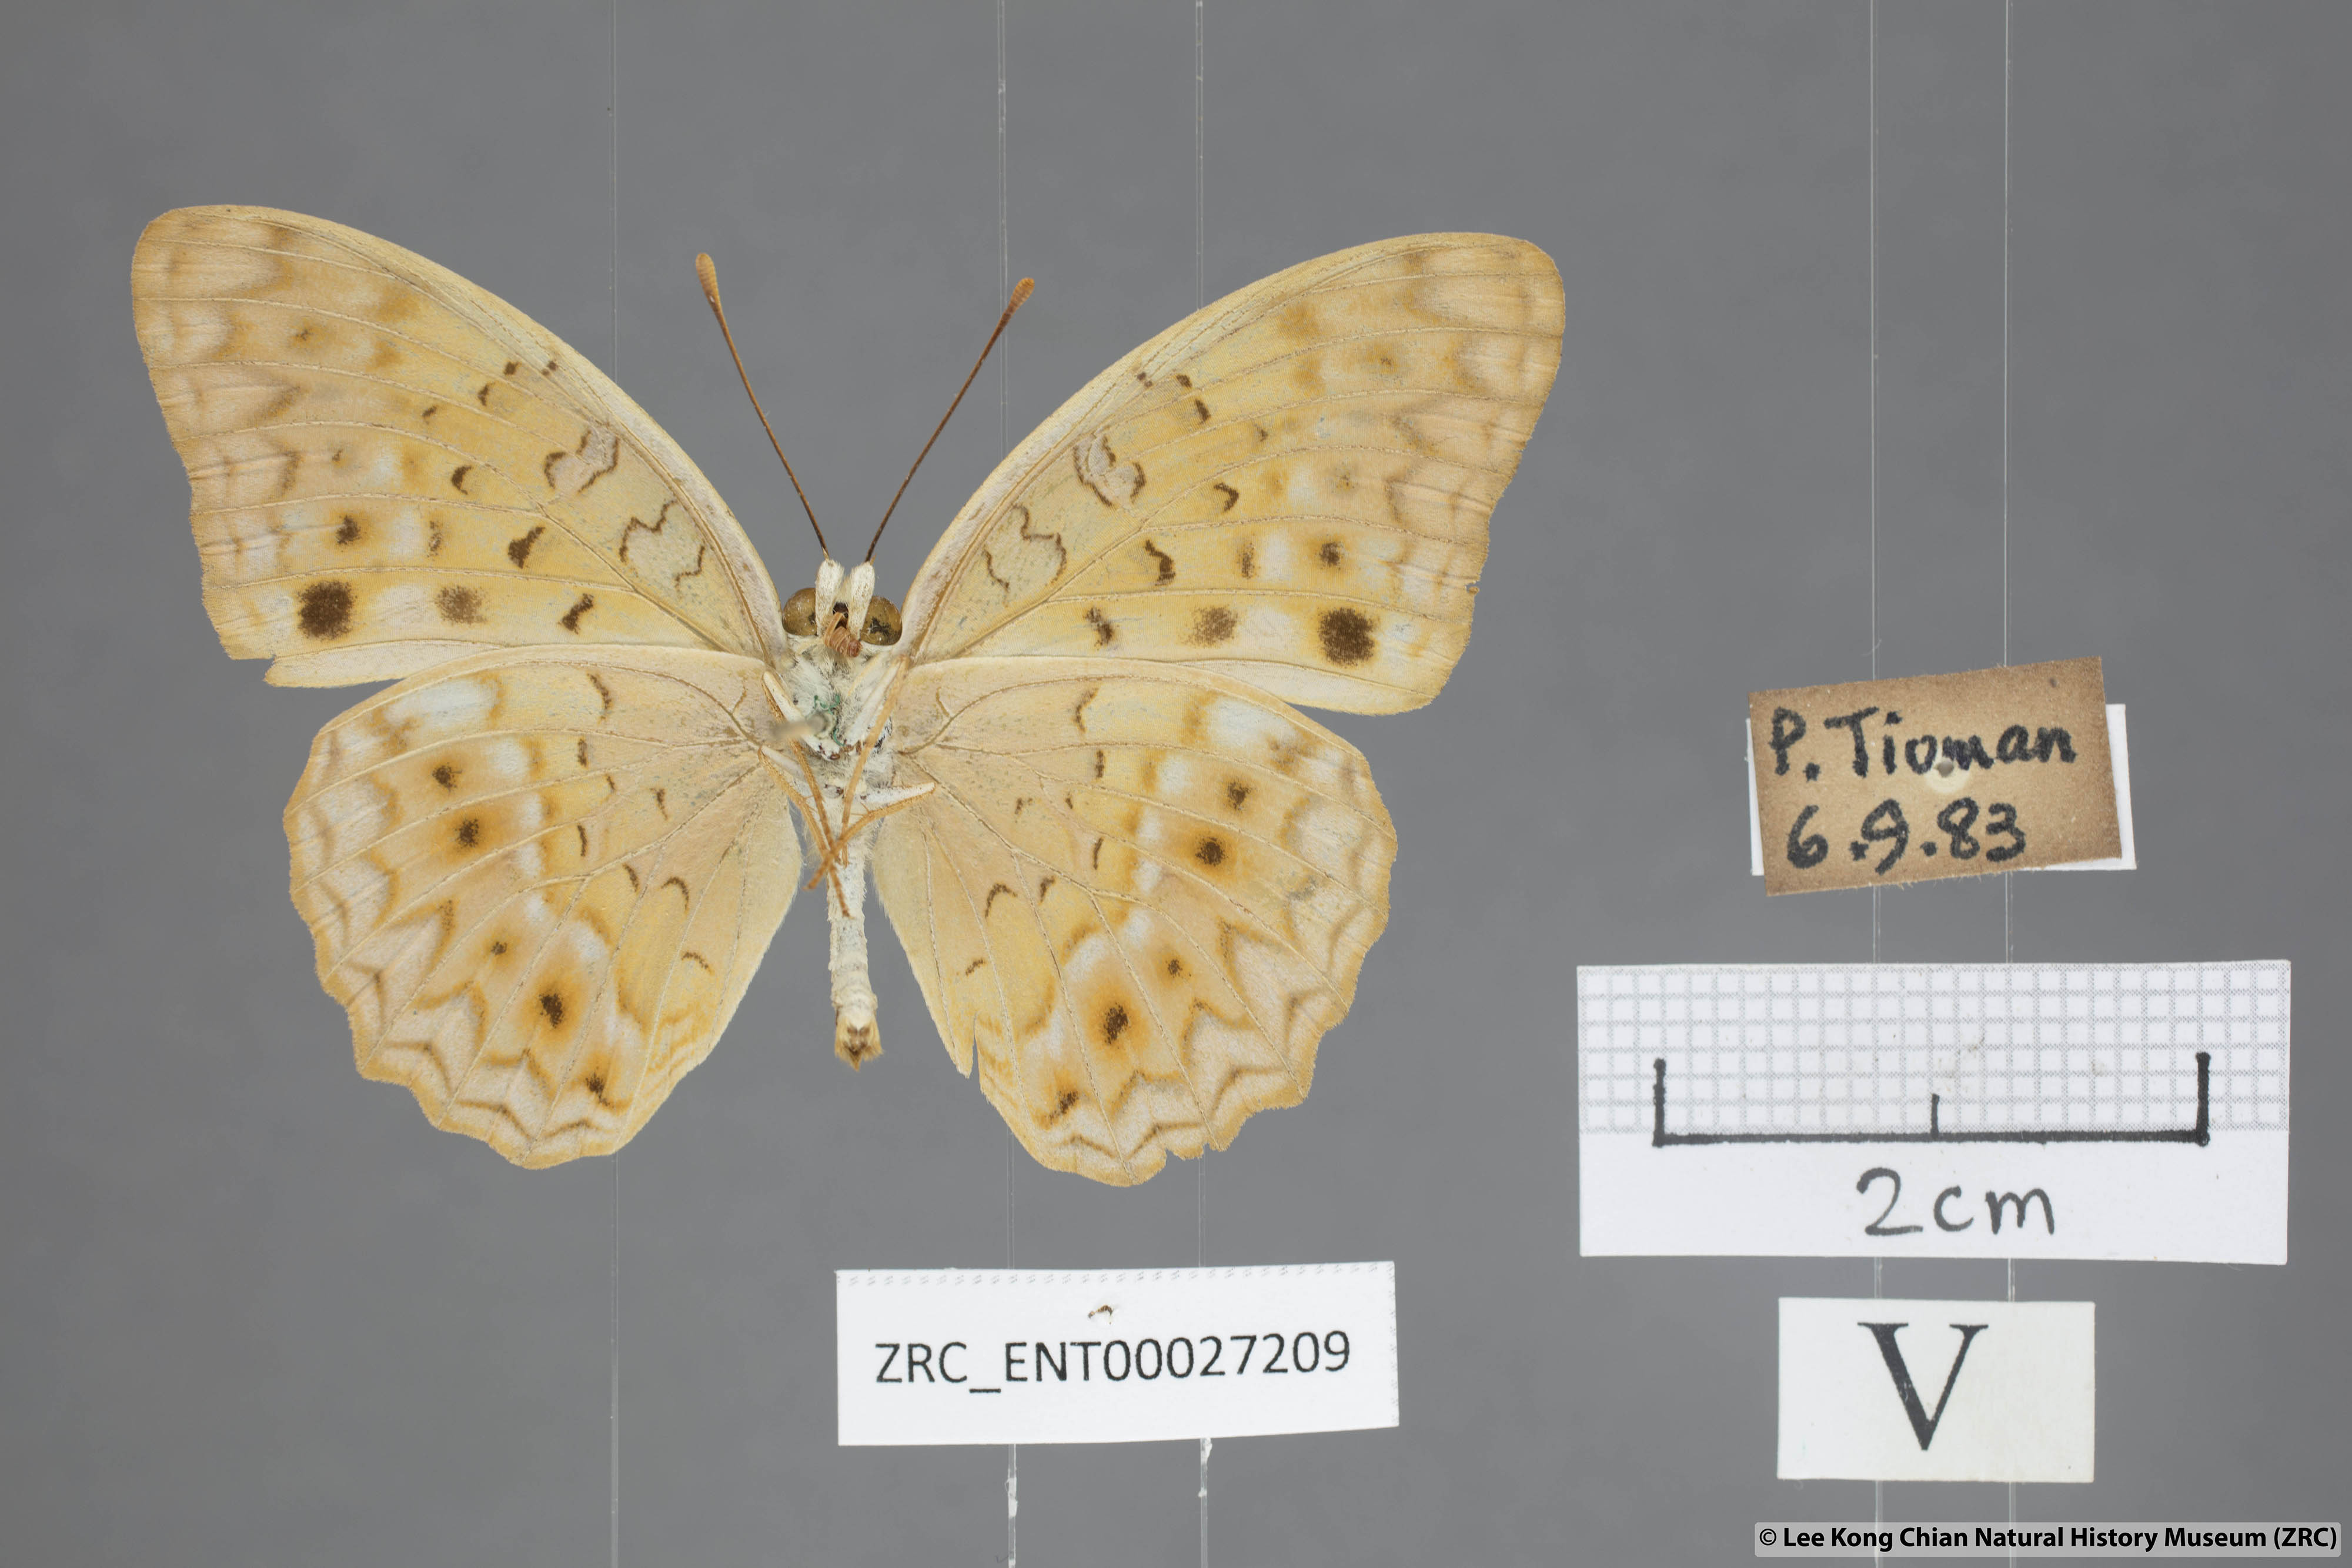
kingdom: Animalia
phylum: Arthropoda
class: Insecta
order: Lepidoptera
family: Nymphalidae
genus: Phalanta
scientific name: Phalanta alcippe
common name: Small leopard
